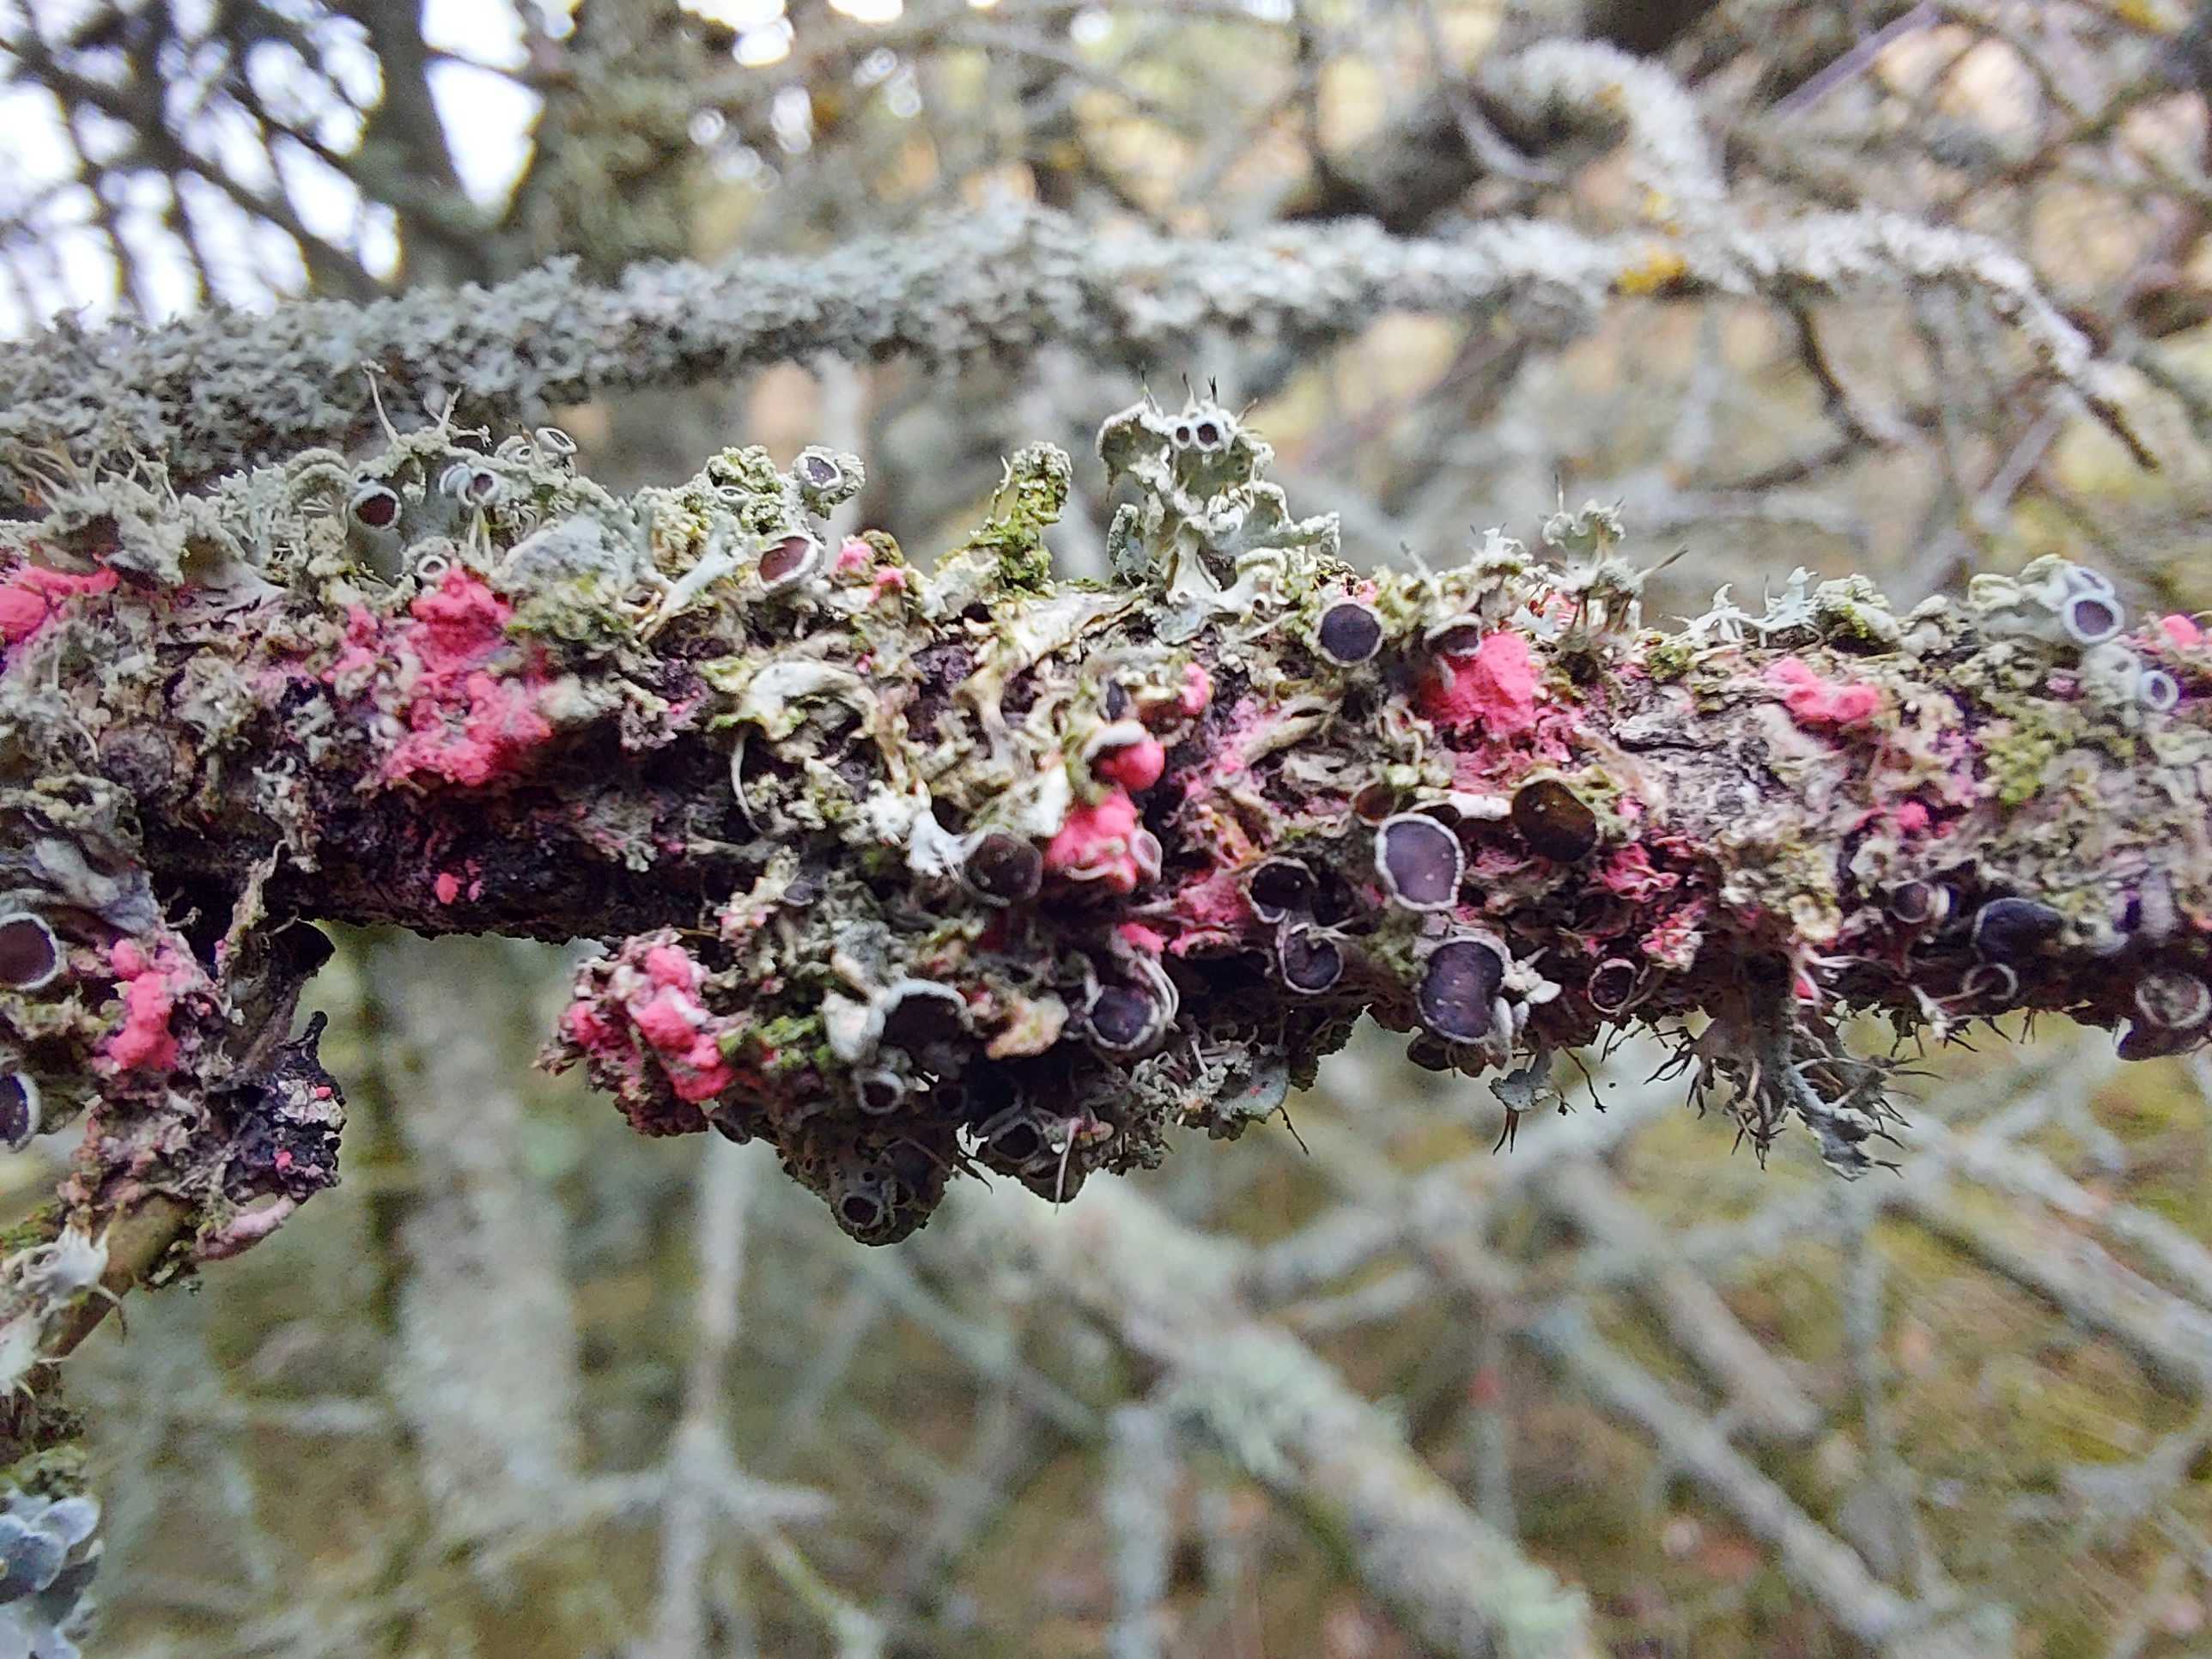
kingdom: Fungi
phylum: Ascomycota
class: Sordariomycetes
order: Hypocreales
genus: Illosporiopsis
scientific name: Illosporiopsis christiansenii
